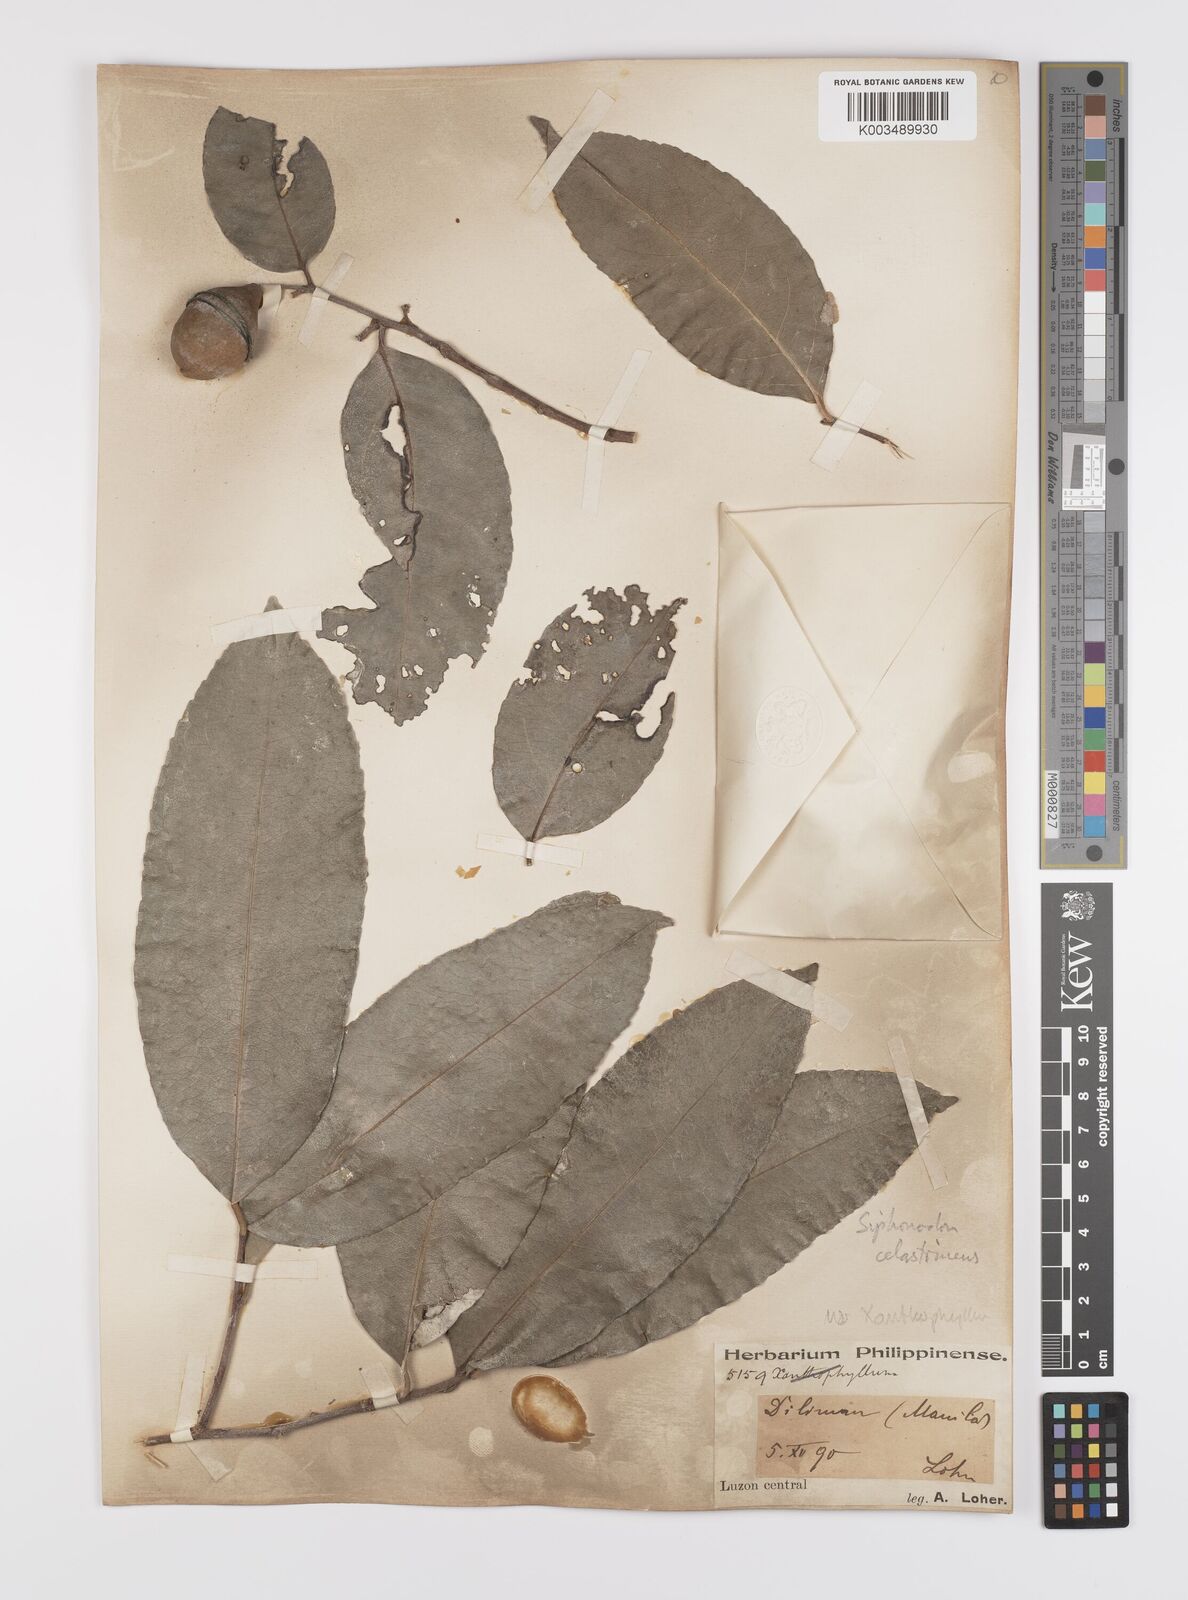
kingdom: Plantae
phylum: Tracheophyta
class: Magnoliopsida
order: Celastrales
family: Celastraceae
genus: Siphonodon
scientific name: Siphonodon celastrineus
